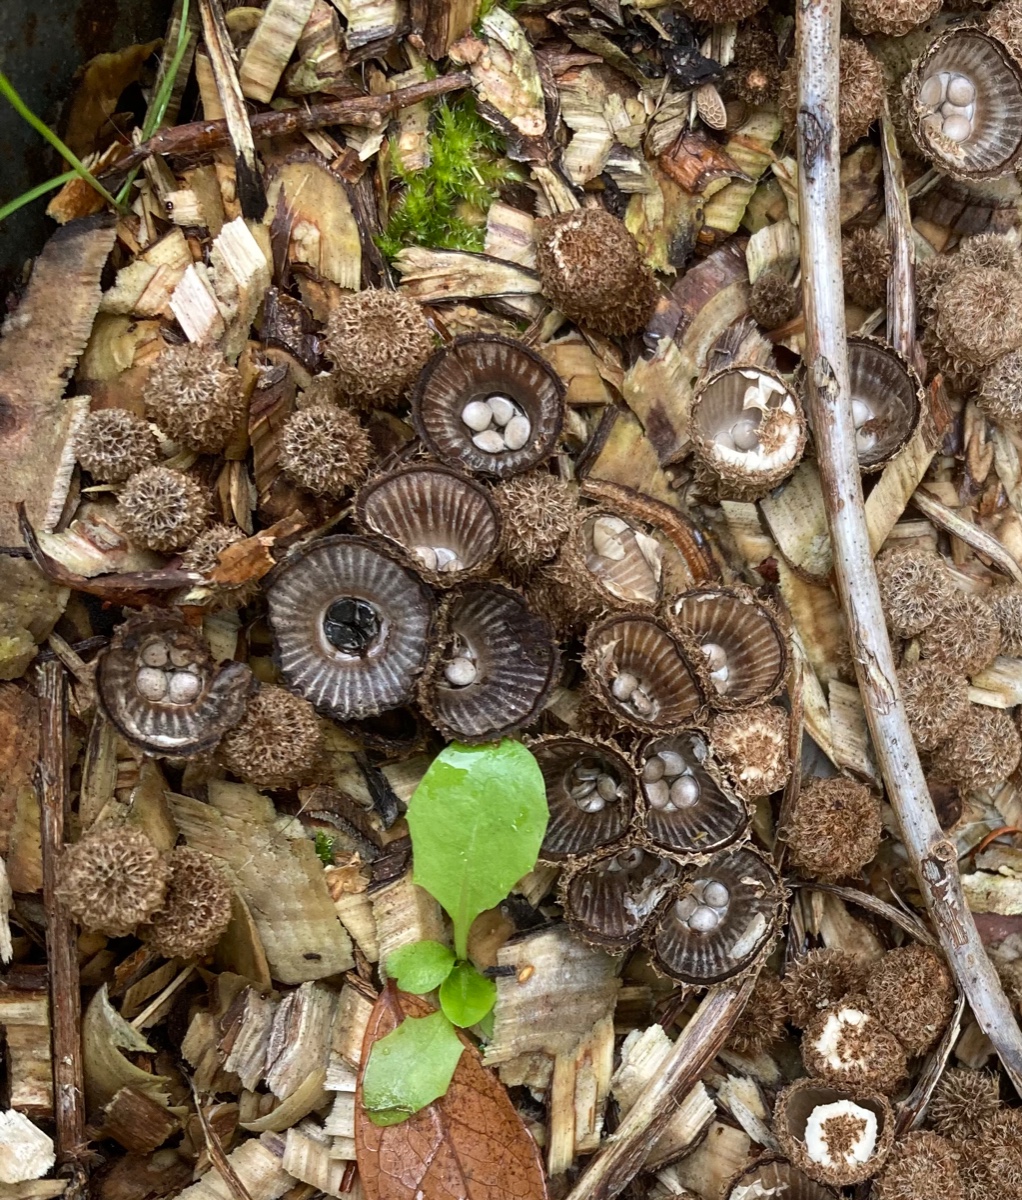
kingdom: Fungi
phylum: Basidiomycota
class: Agaricomycetes
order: Agaricales
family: Agaricaceae
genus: Cyathus
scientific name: Cyathus striatus
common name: stribet redesvamp
